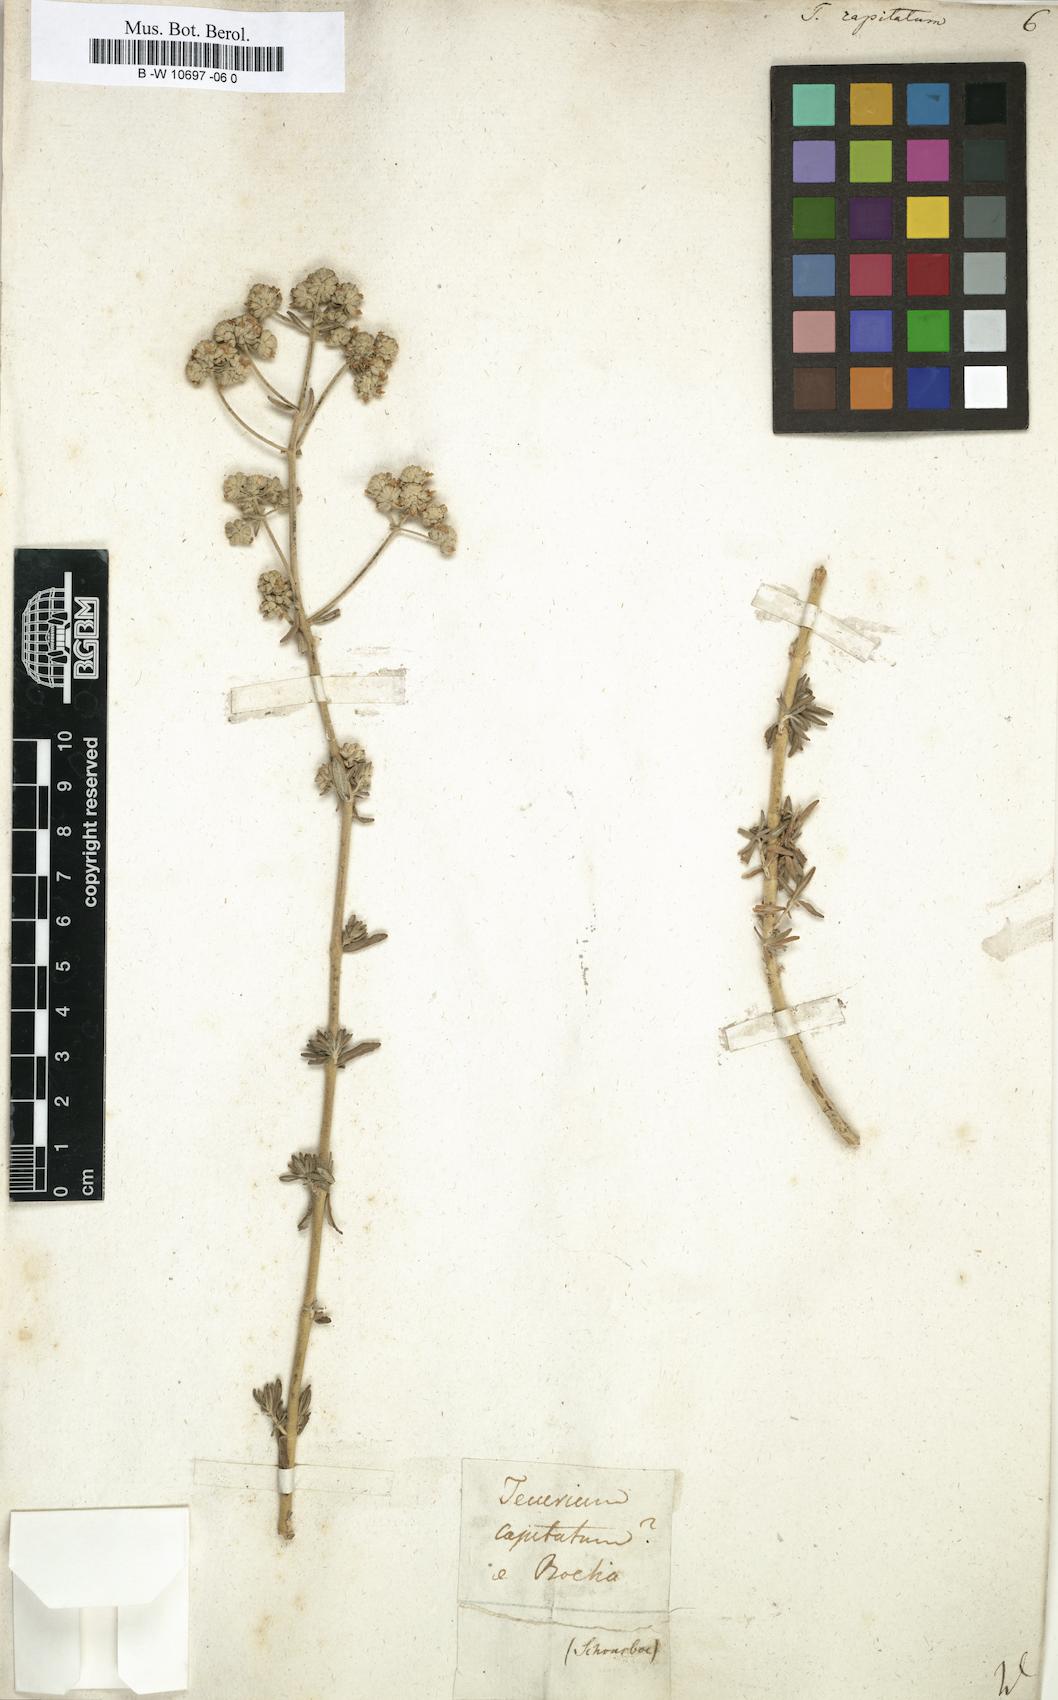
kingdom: Plantae
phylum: Tracheophyta
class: Magnoliopsida
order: Lamiales
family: Lamiaceae
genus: Teucrium
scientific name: Teucrium capitatum
